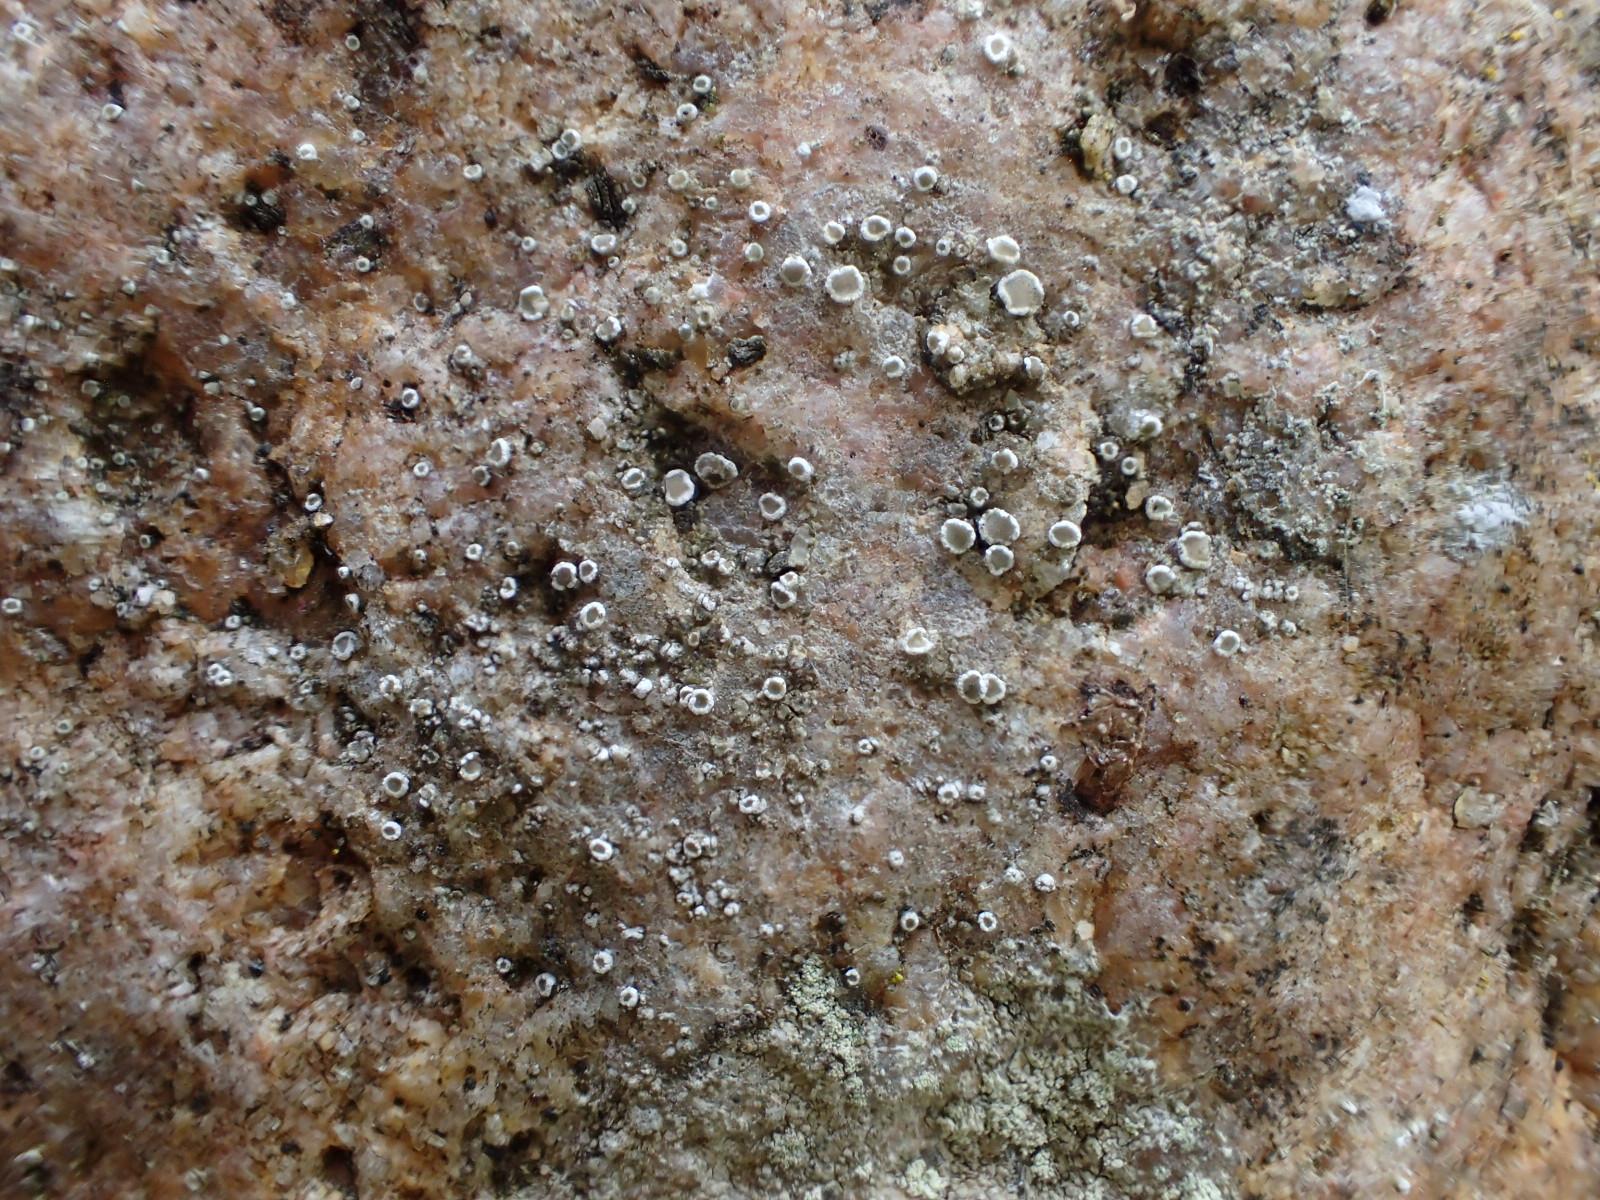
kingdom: Fungi
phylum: Ascomycota
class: Lecanoromycetes
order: Lecanorales
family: Lecanoraceae
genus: Polyozosia
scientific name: Polyozosia dispersa
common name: spredt kantskivelav
